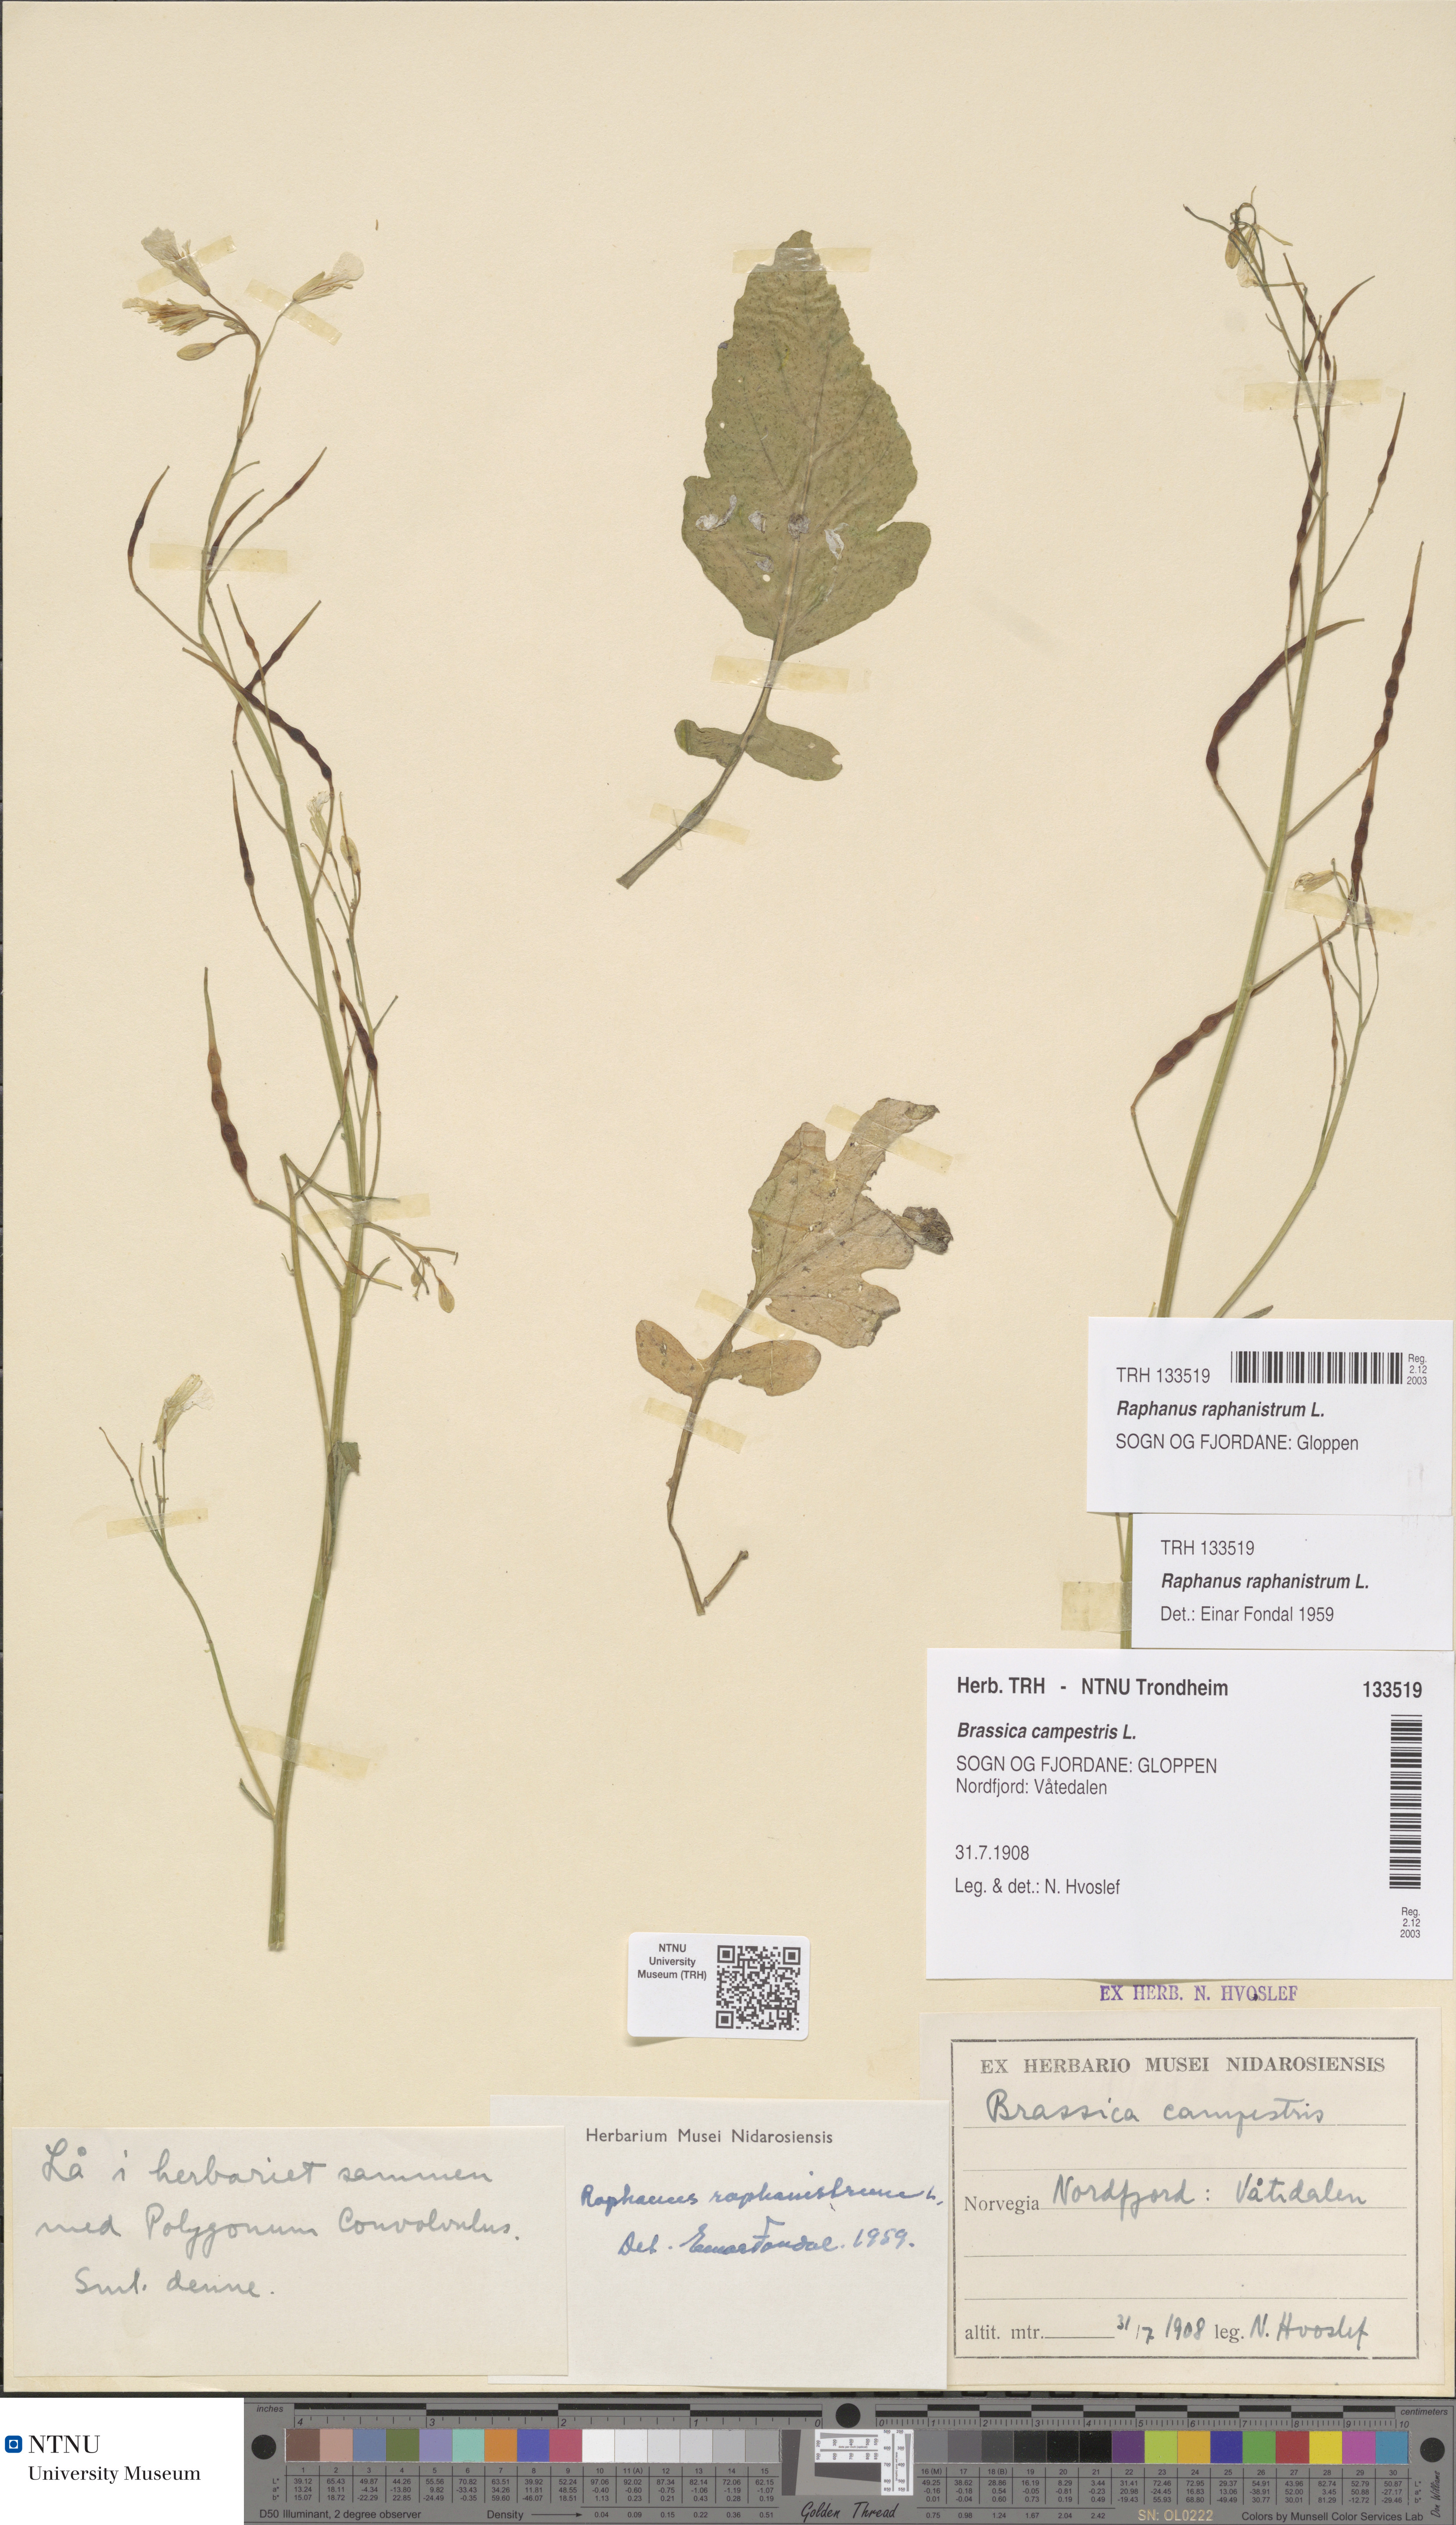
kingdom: Plantae
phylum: Tracheophyta
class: Magnoliopsida
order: Brassicales
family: Brassicaceae
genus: Raphanus
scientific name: Raphanus raphanistrum
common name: Wild radish
